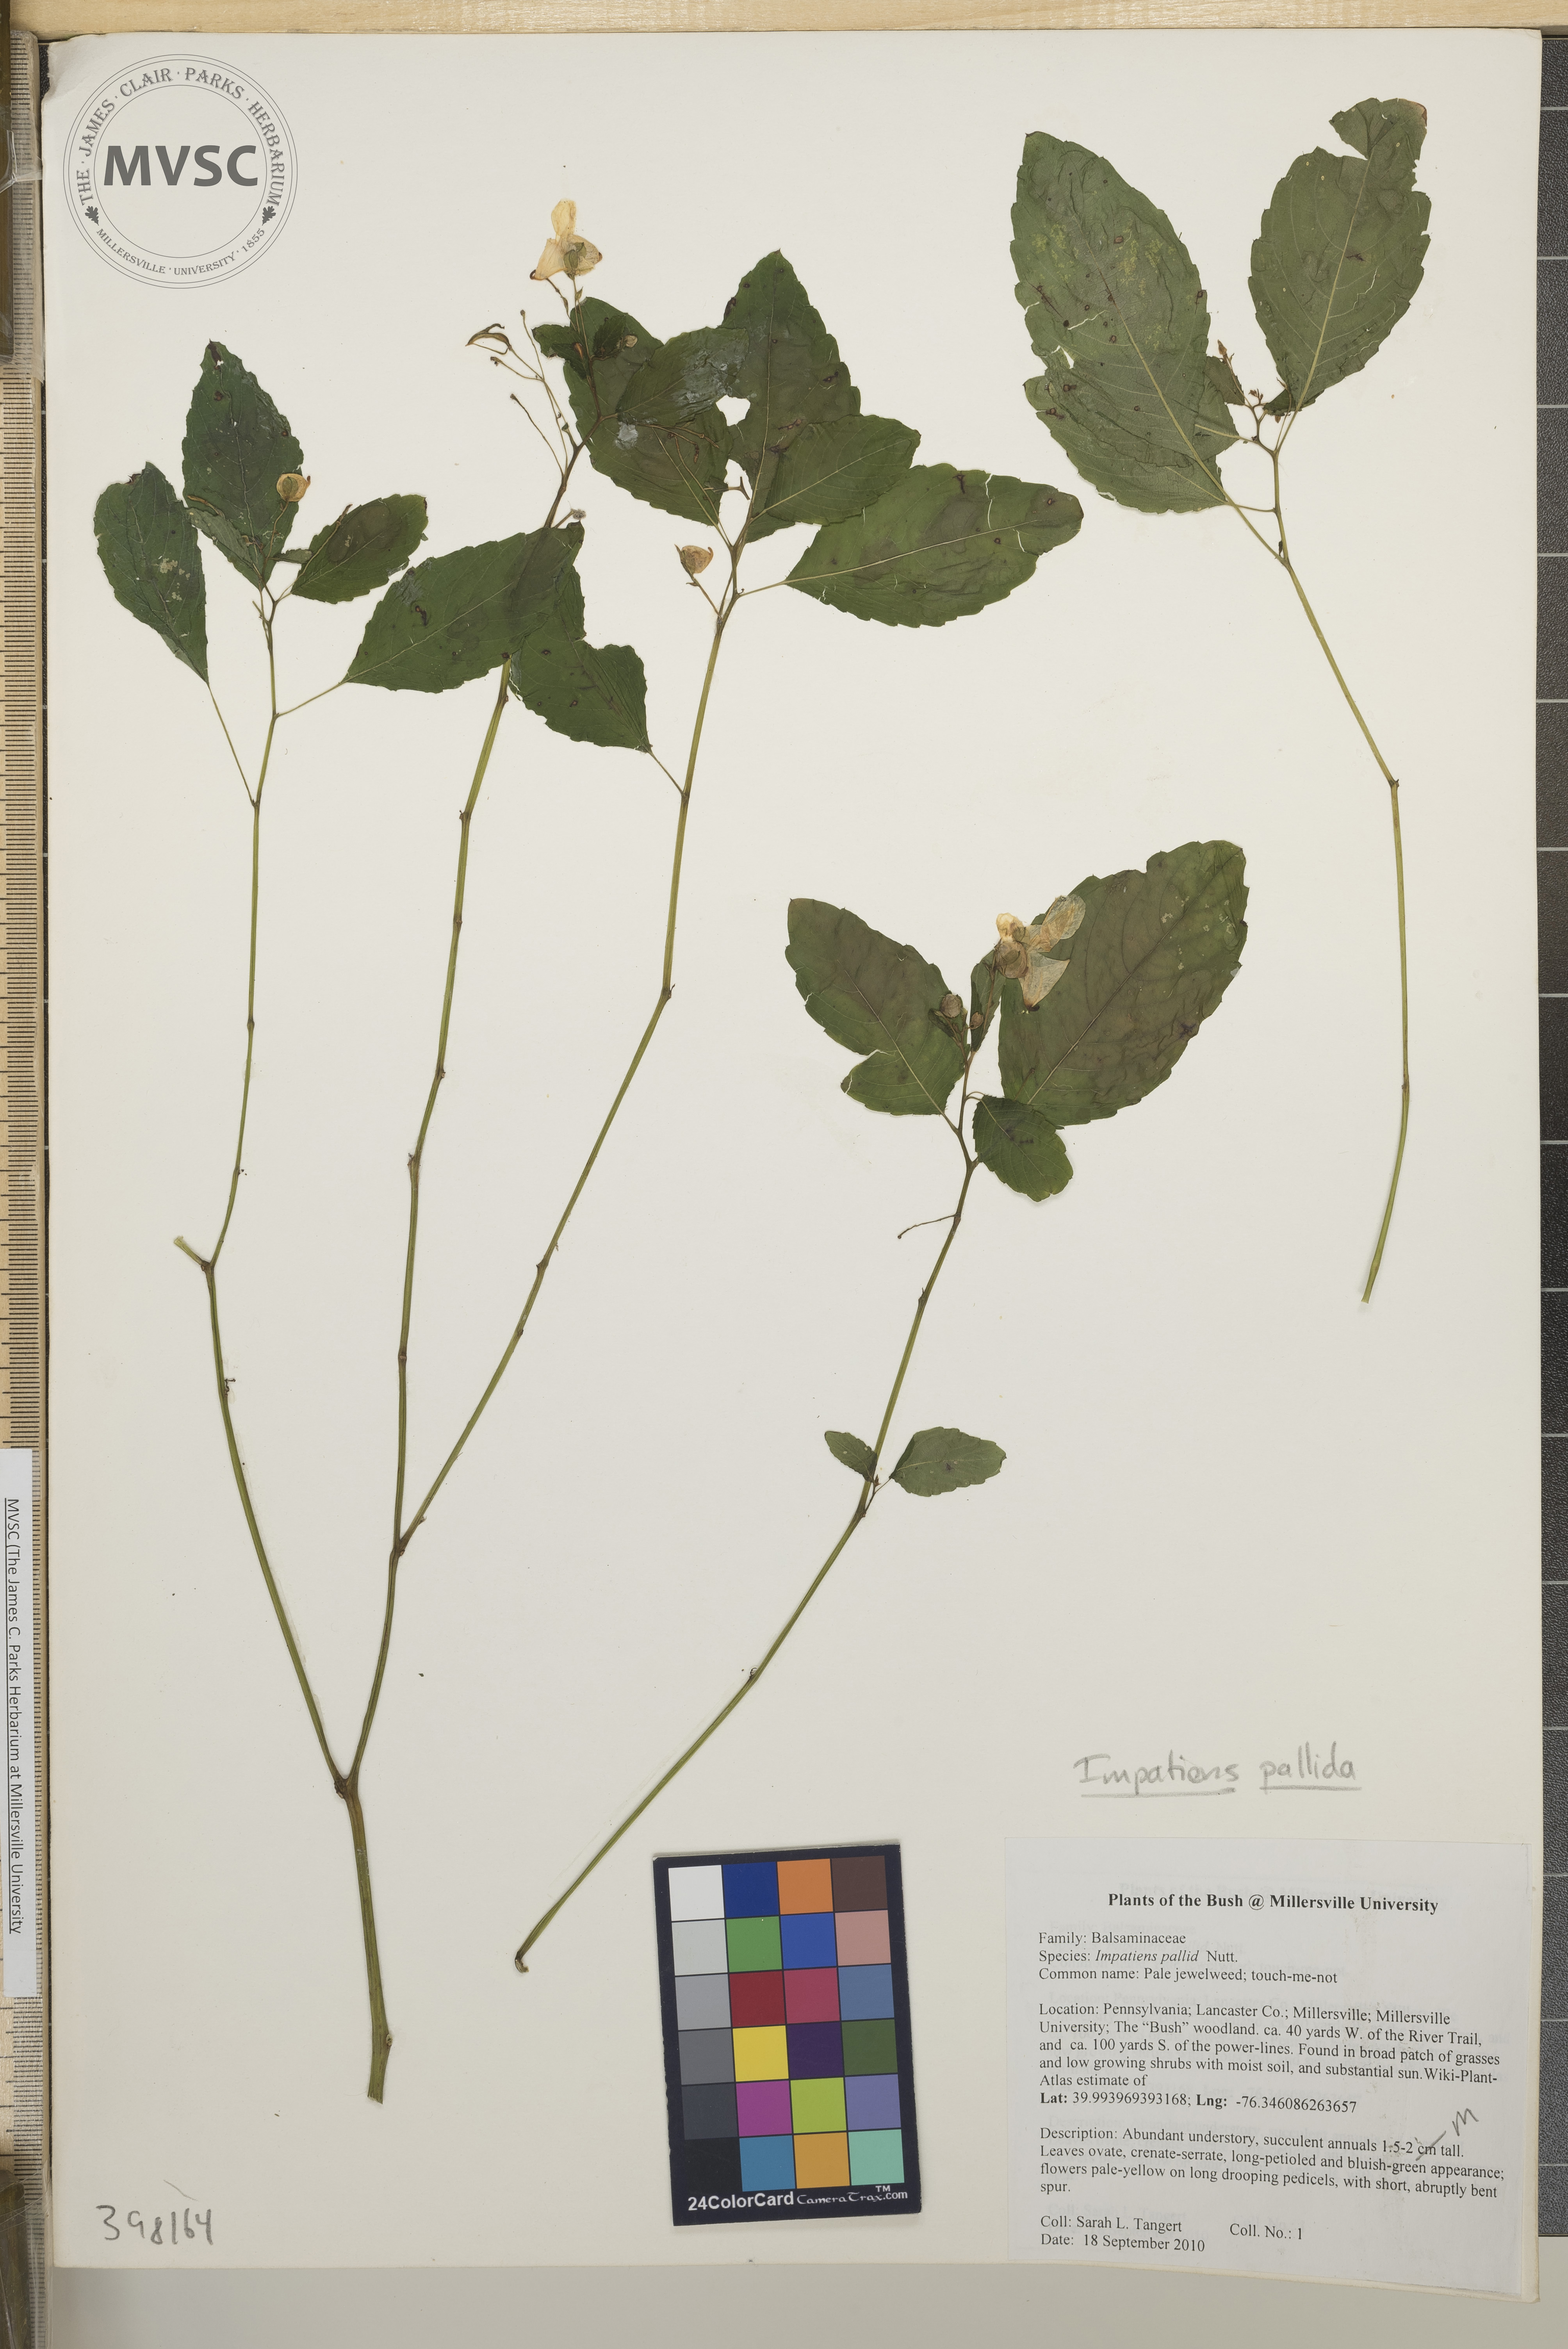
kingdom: Plantae
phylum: Tracheophyta
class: Magnoliopsida
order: Ericales
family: Balsaminaceae
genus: Impatiens
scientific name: Impatiens pallida
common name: Pale jewelweed
